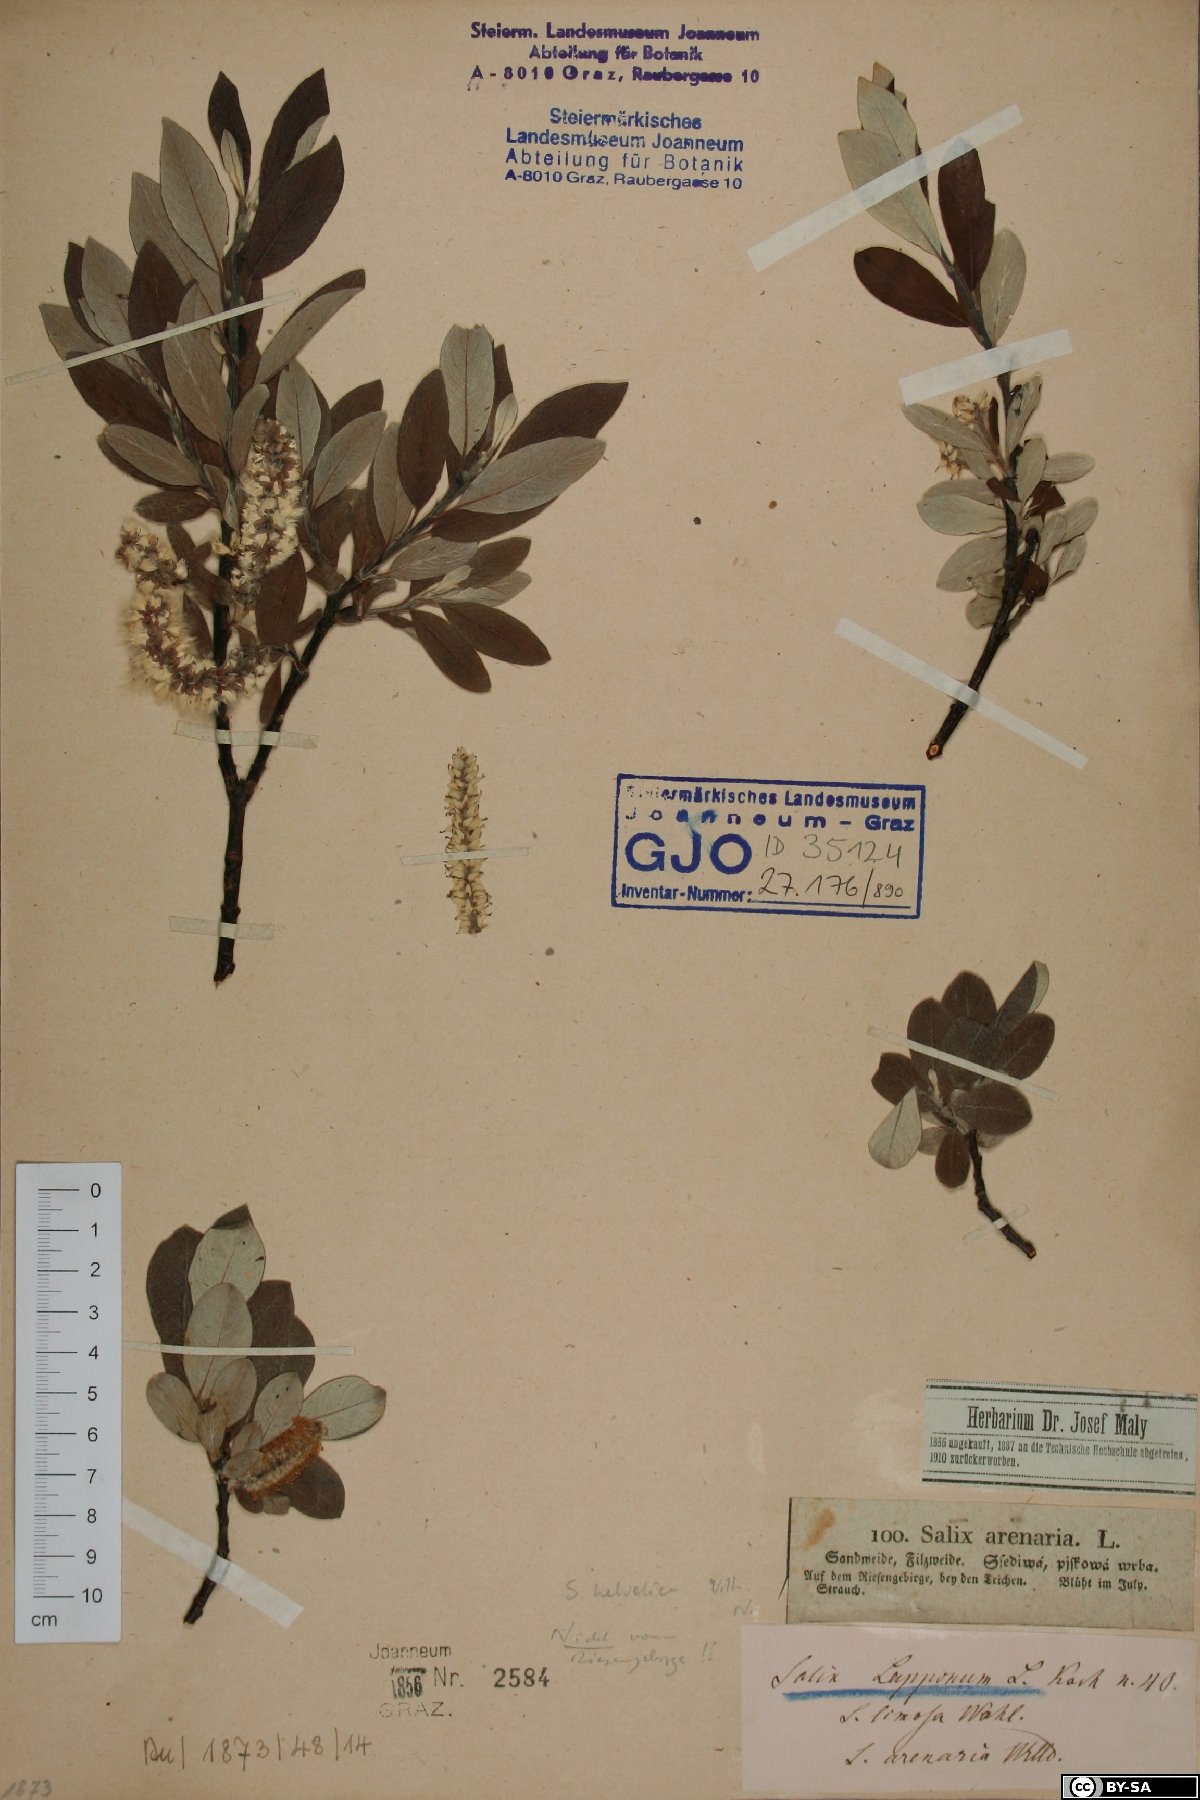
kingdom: Plantae
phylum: Tracheophyta
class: Magnoliopsida
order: Malpighiales
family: Salicaceae
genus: Salix
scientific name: Salix helvetica
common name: Swiss willow
